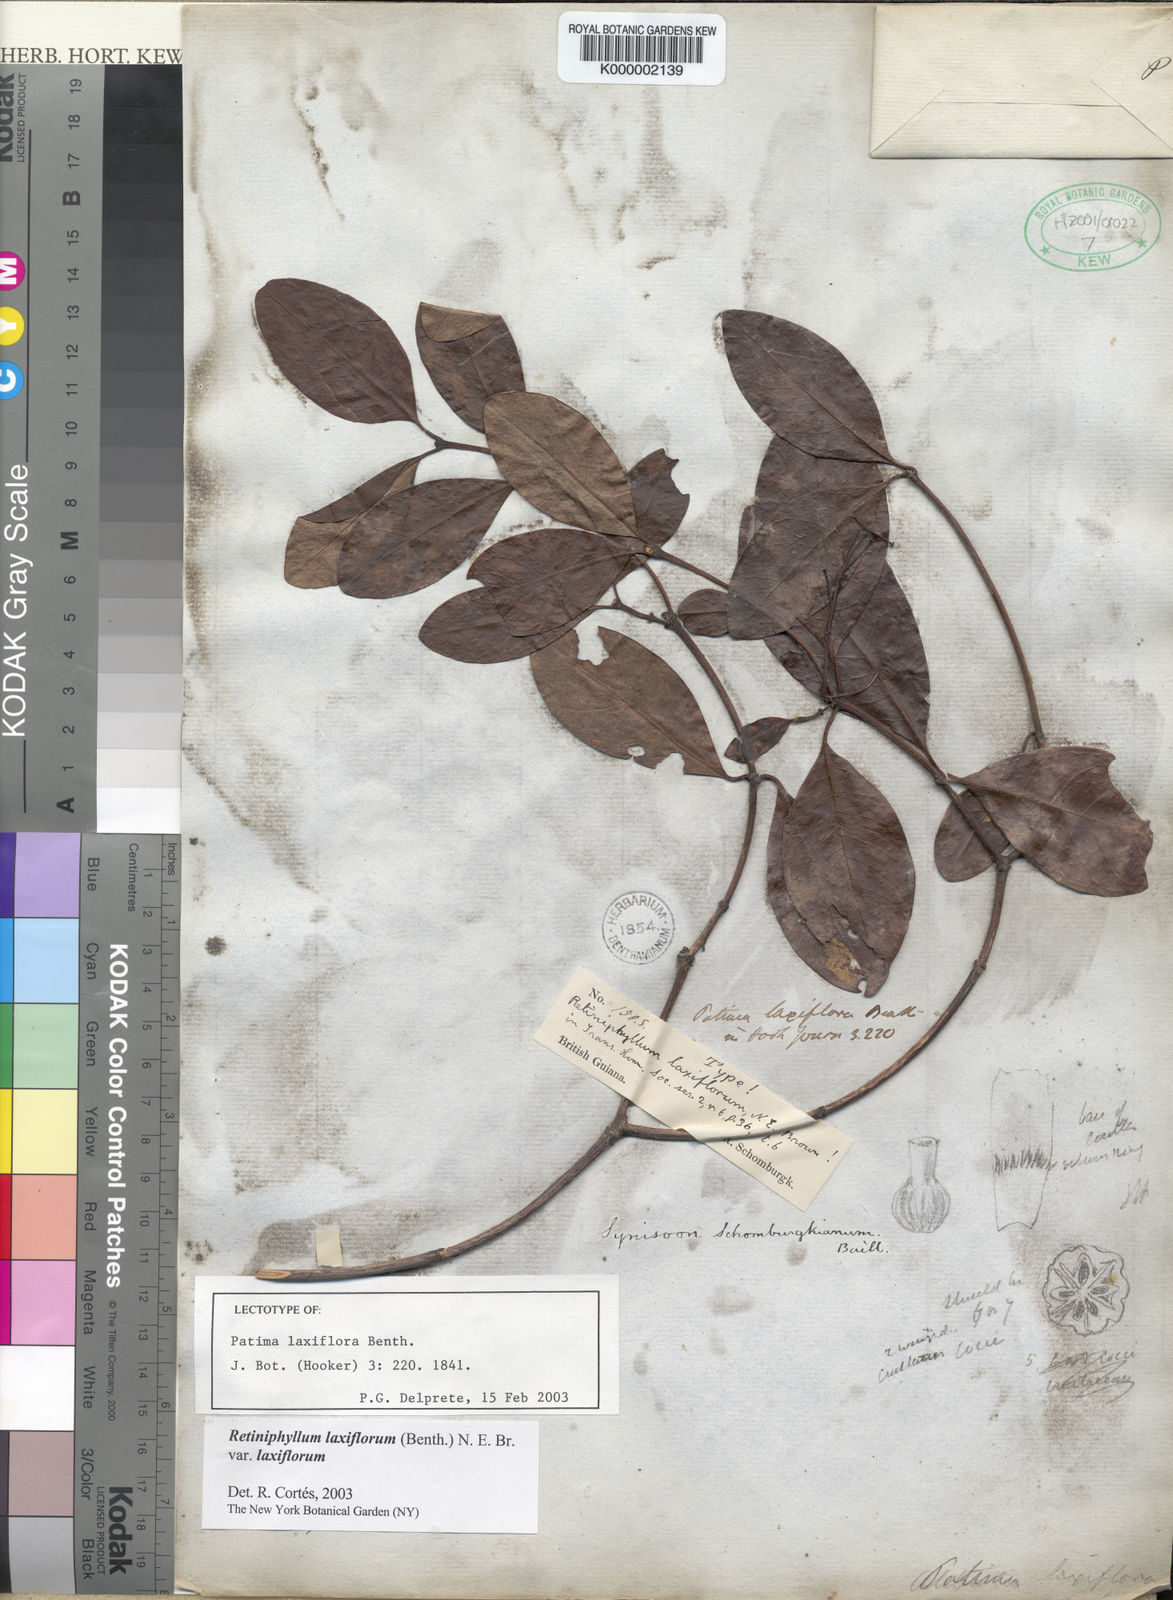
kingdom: Plantae
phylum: Tracheophyta
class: Magnoliopsida
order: Gentianales
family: Rubiaceae
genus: Retiniphyllum
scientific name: Retiniphyllum laxiflorum
